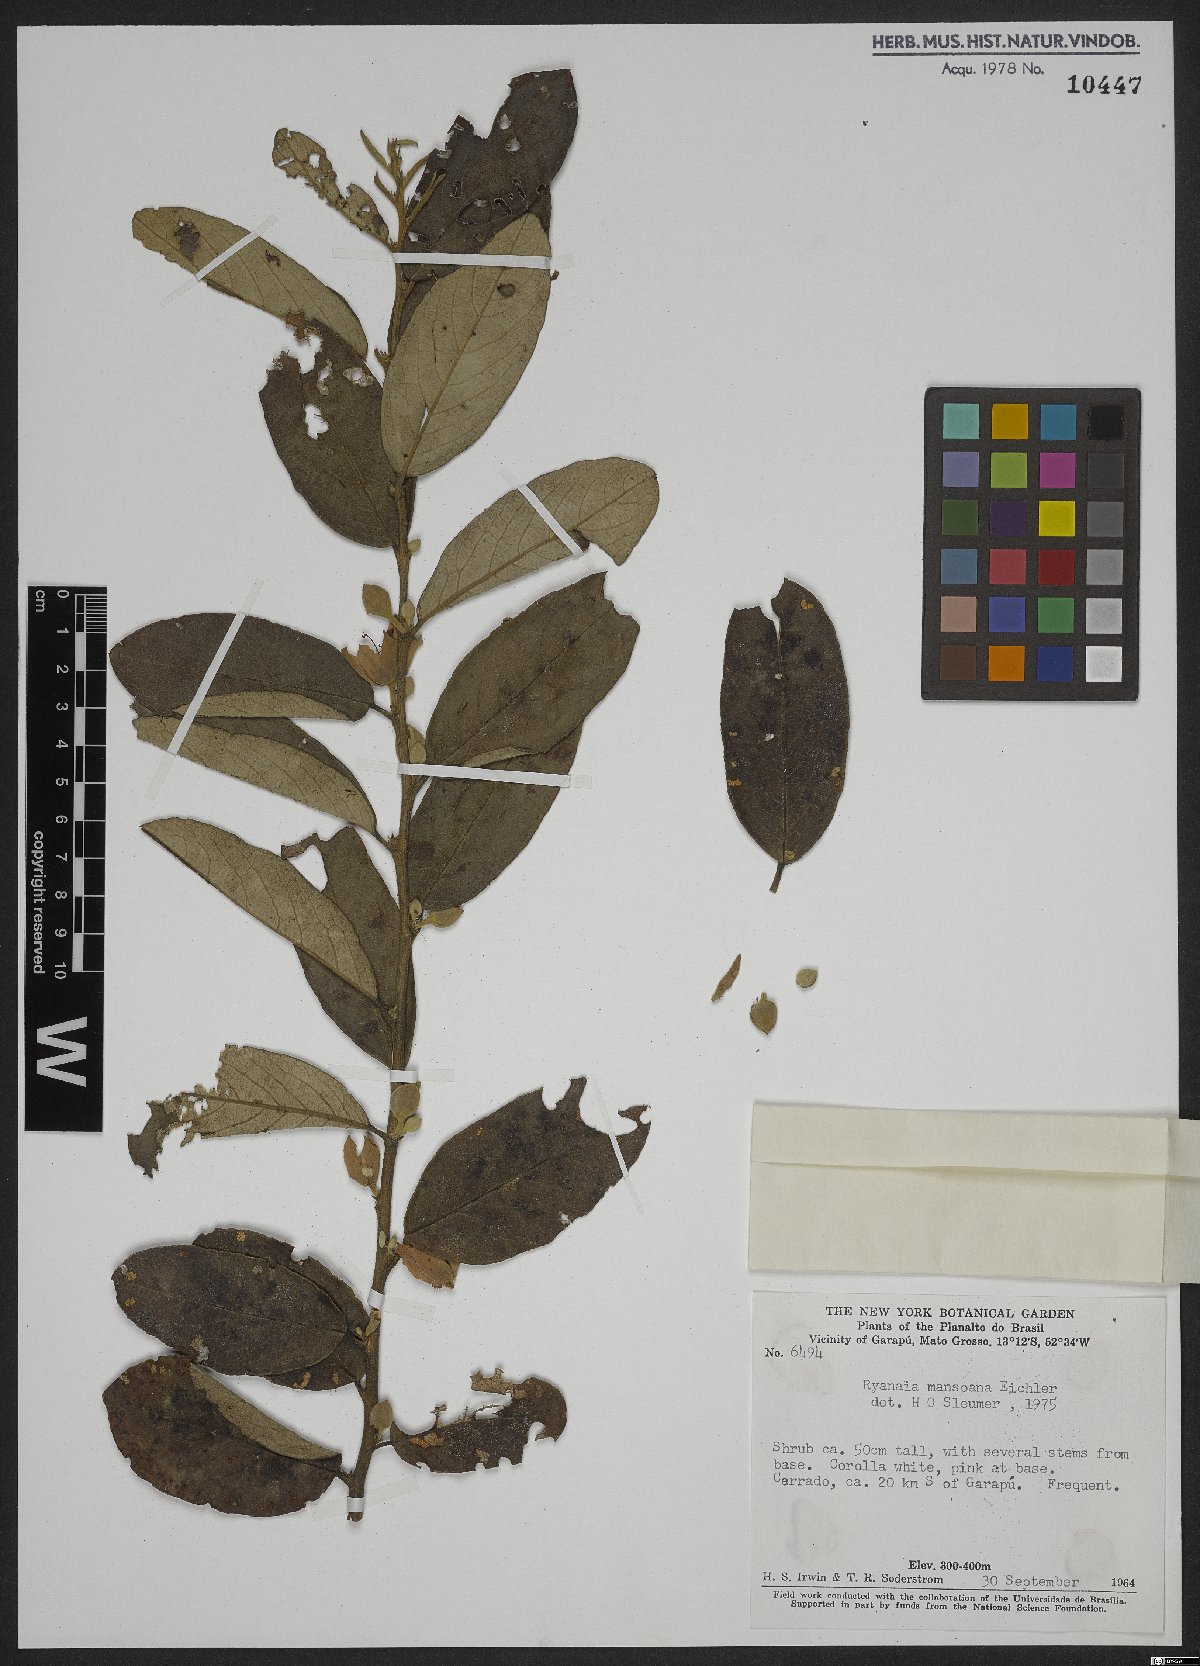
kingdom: Plantae
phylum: Tracheophyta
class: Magnoliopsida
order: Malpighiales
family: Salicaceae
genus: Ryania
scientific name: Ryania mansoana
